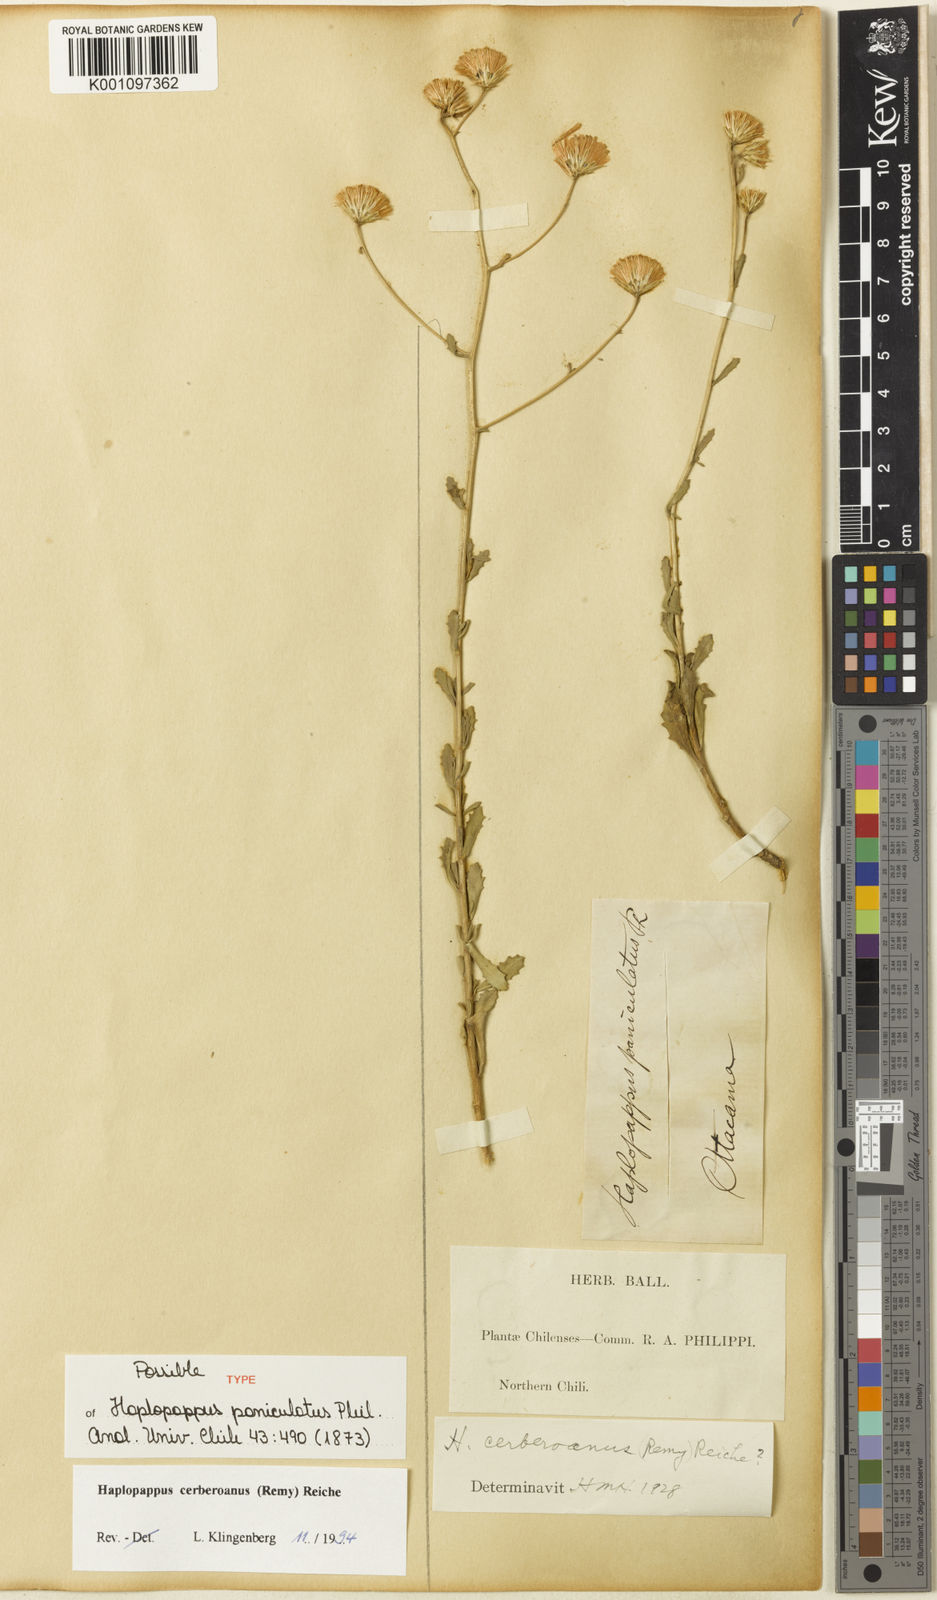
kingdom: Plantae
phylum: Tracheophyta
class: Magnoliopsida
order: Asterales
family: Asteraceae
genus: Haplopappus
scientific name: Haplopappus
